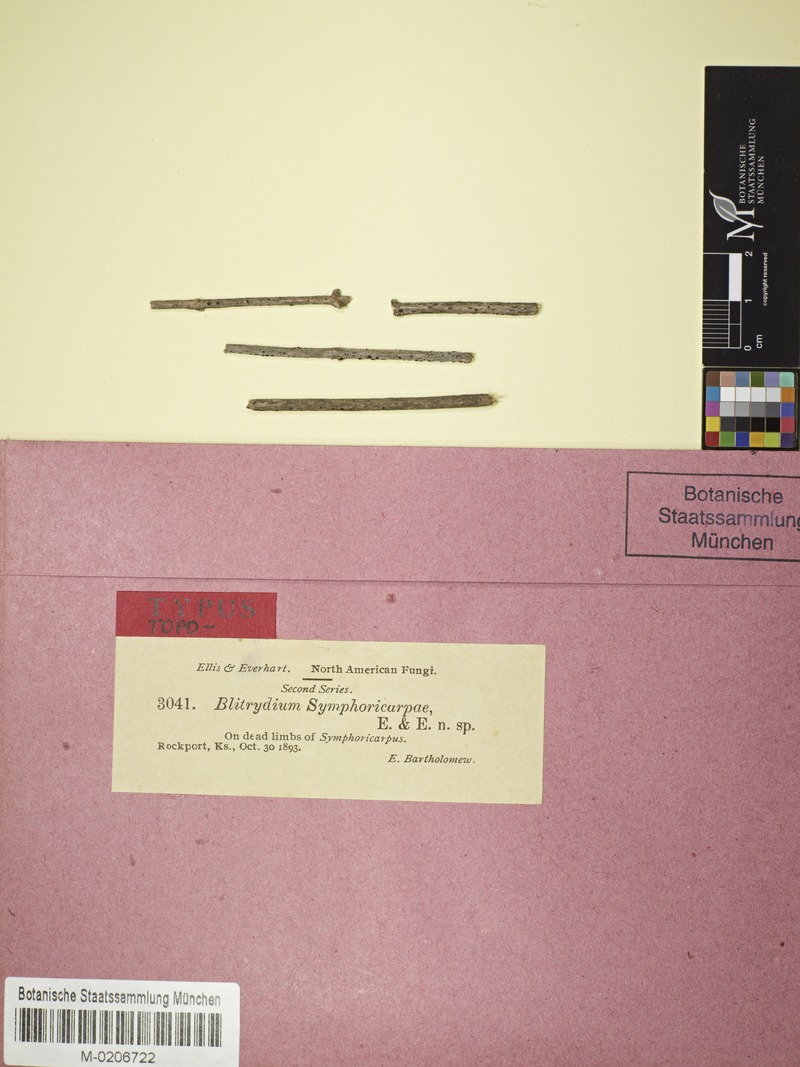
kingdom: Fungi
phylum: Ascomycota
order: Triblidiales
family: Triblidiaceae
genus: Blitridium
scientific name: Blitridium
